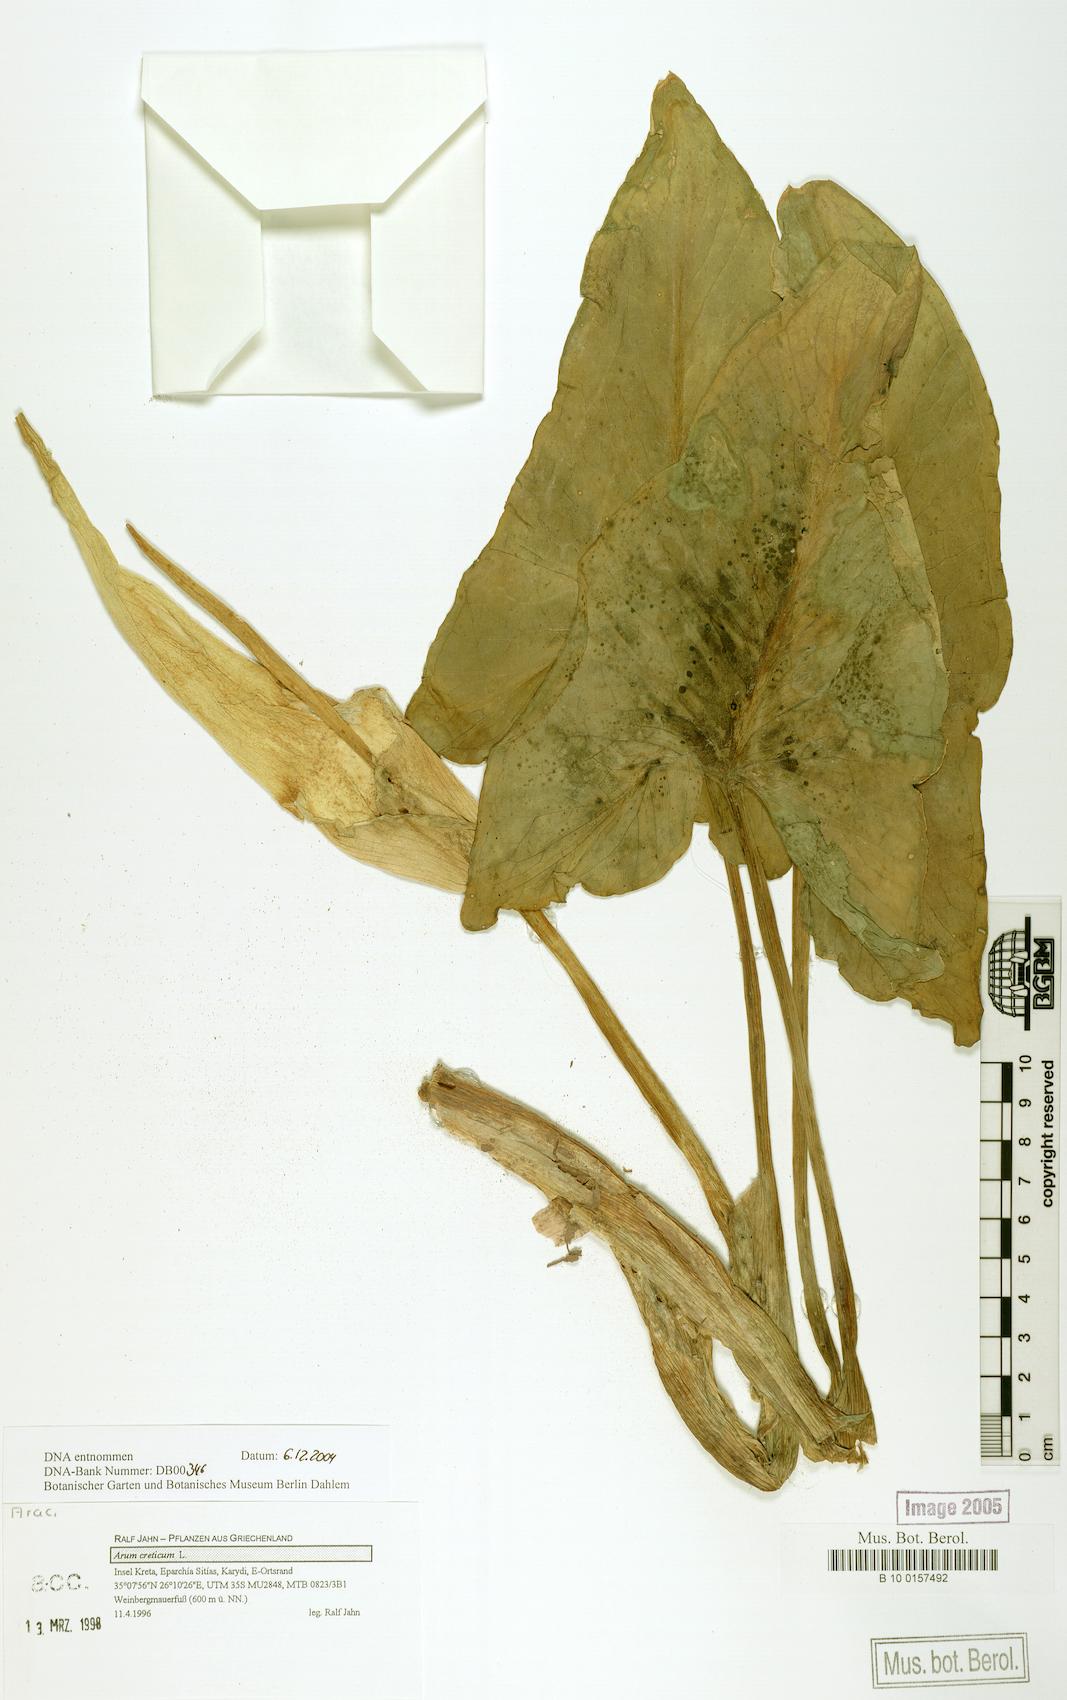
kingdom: Plantae
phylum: Tracheophyta
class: Liliopsida
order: Alismatales
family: Araceae
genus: Arum
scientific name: Arum creticum
